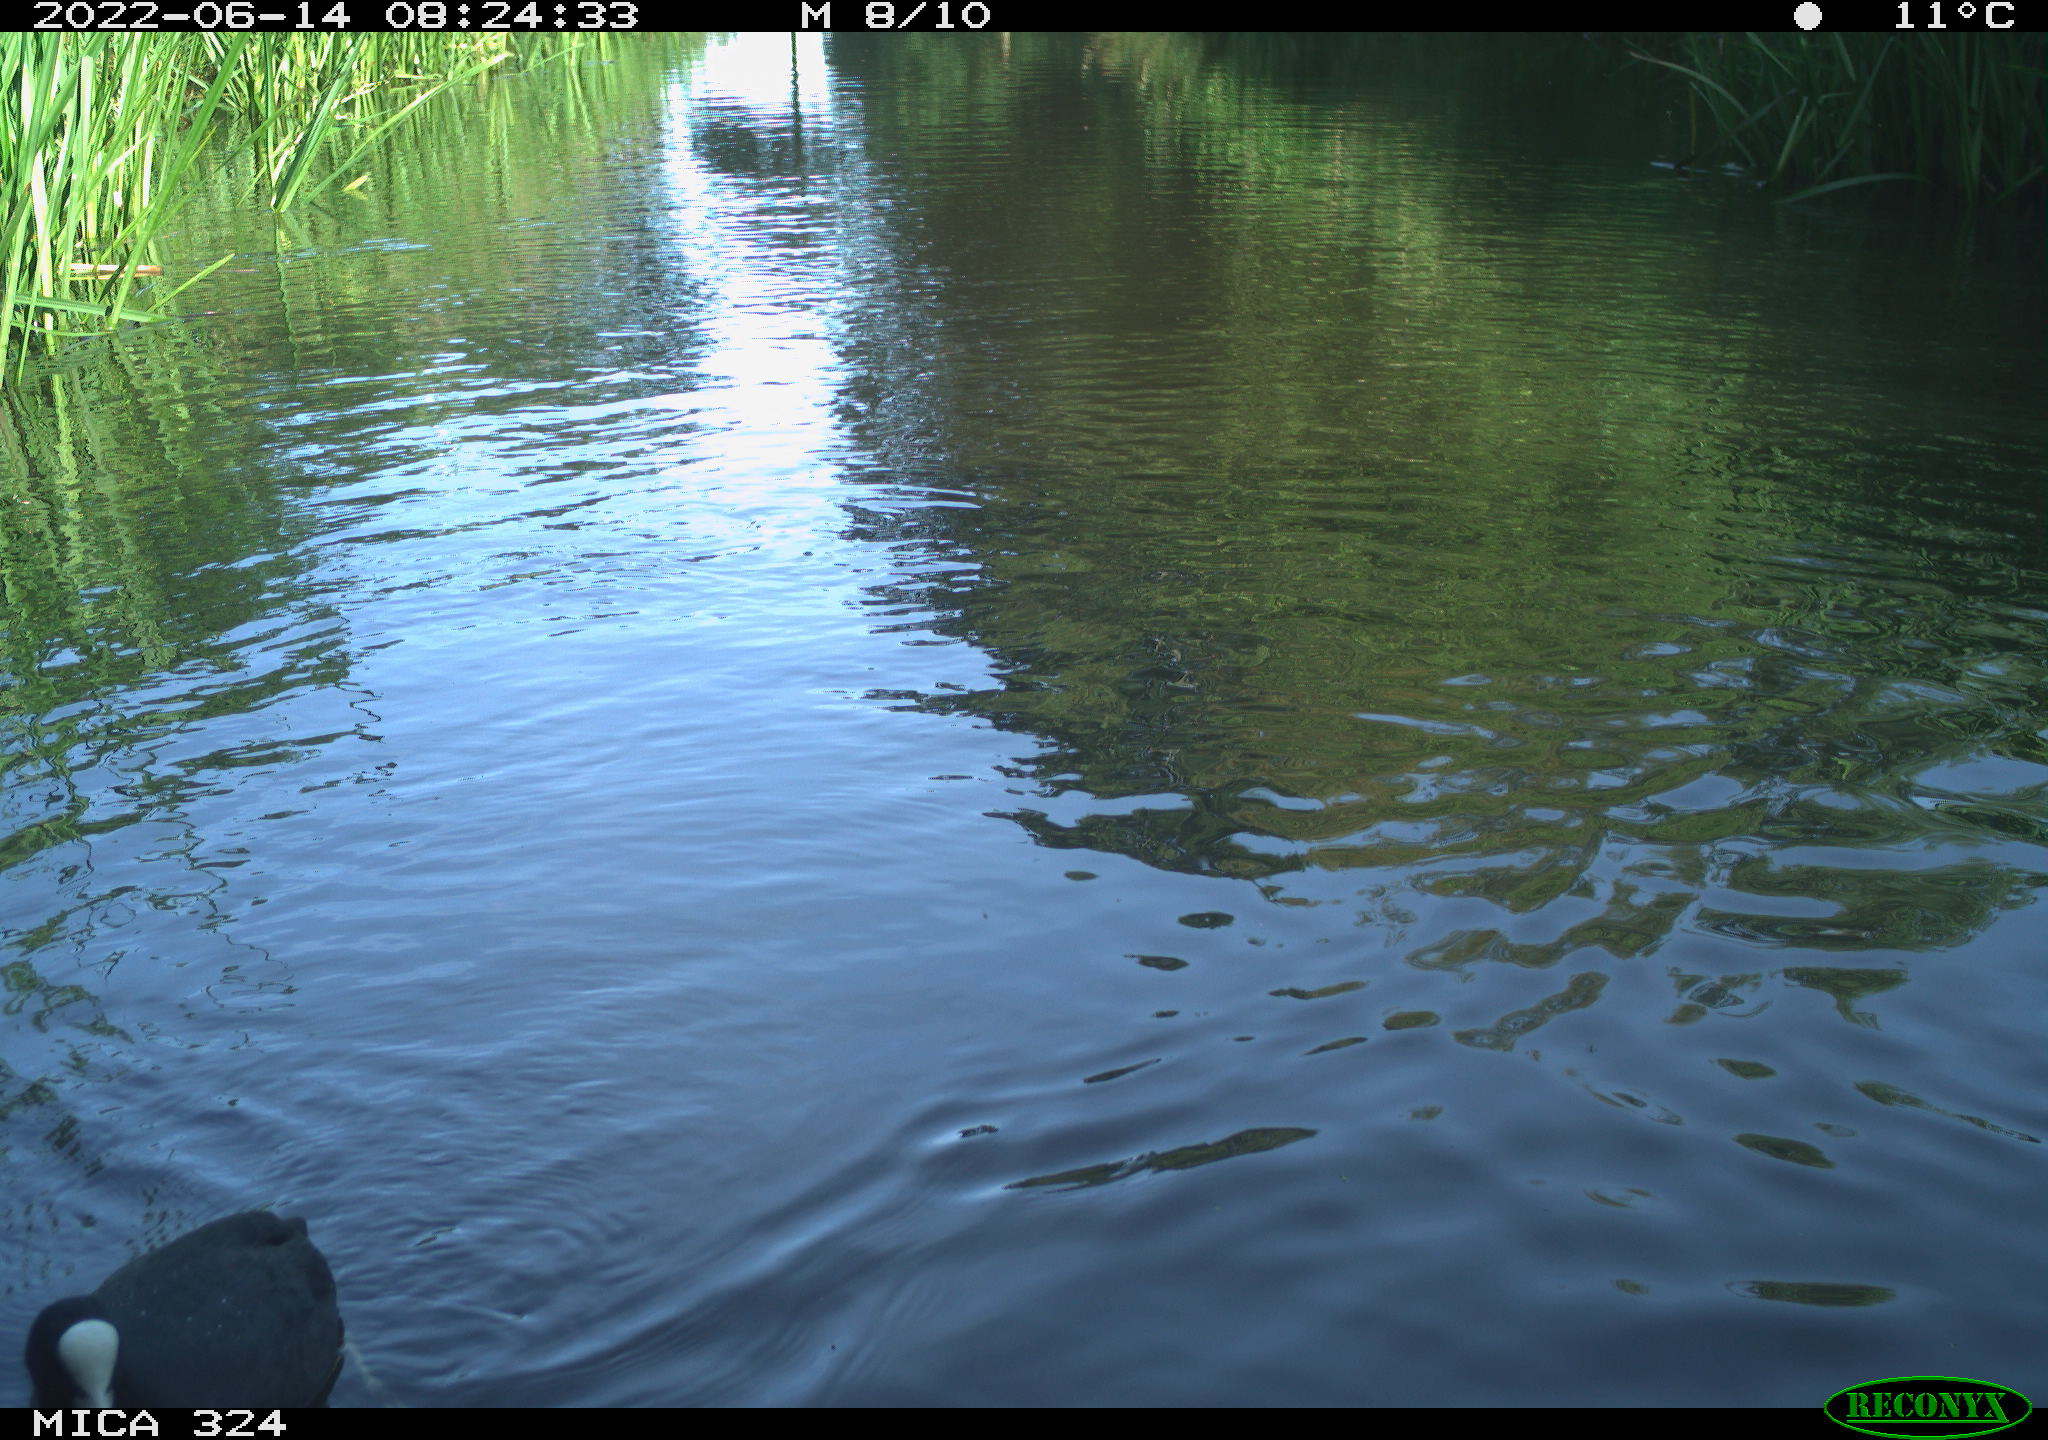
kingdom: Animalia
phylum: Chordata
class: Aves
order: Gruiformes
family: Rallidae
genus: Fulica
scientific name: Fulica atra
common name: Eurasian coot
